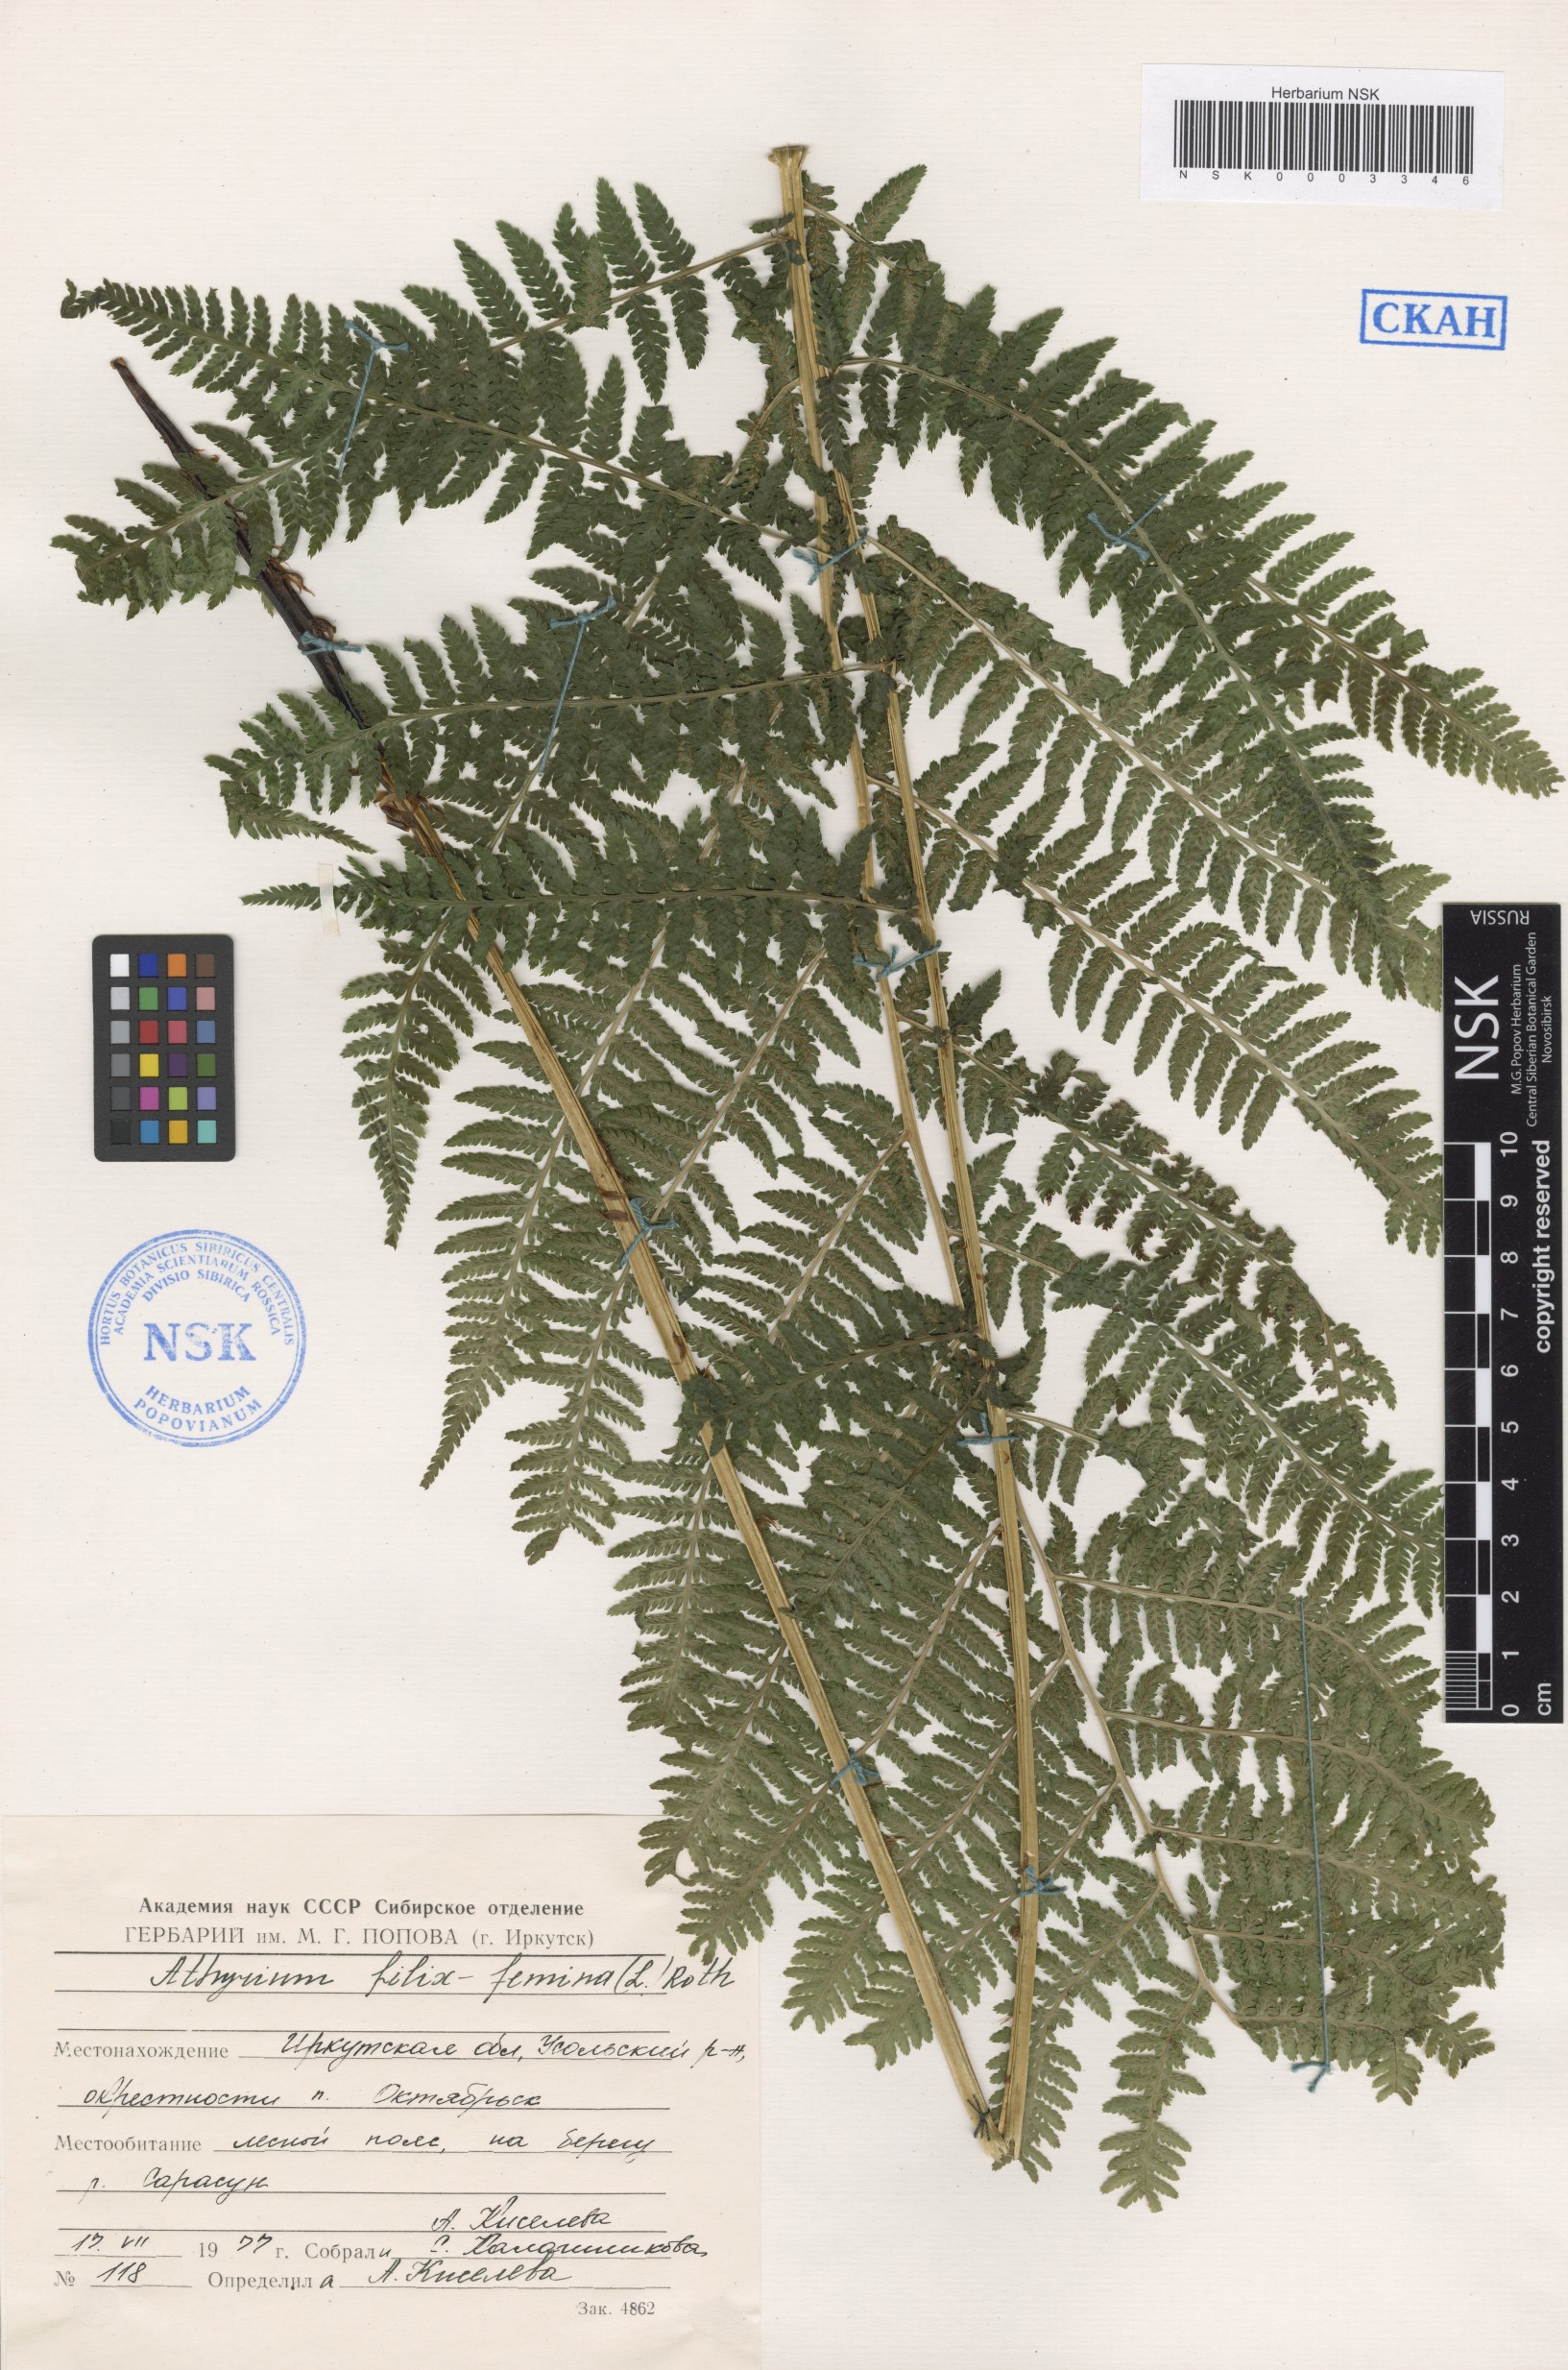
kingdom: Plantae
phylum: Tracheophyta
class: Polypodiopsida
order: Polypodiales
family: Athyriaceae
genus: Athyrium
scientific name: Athyrium filix-femina
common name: Lady fern
